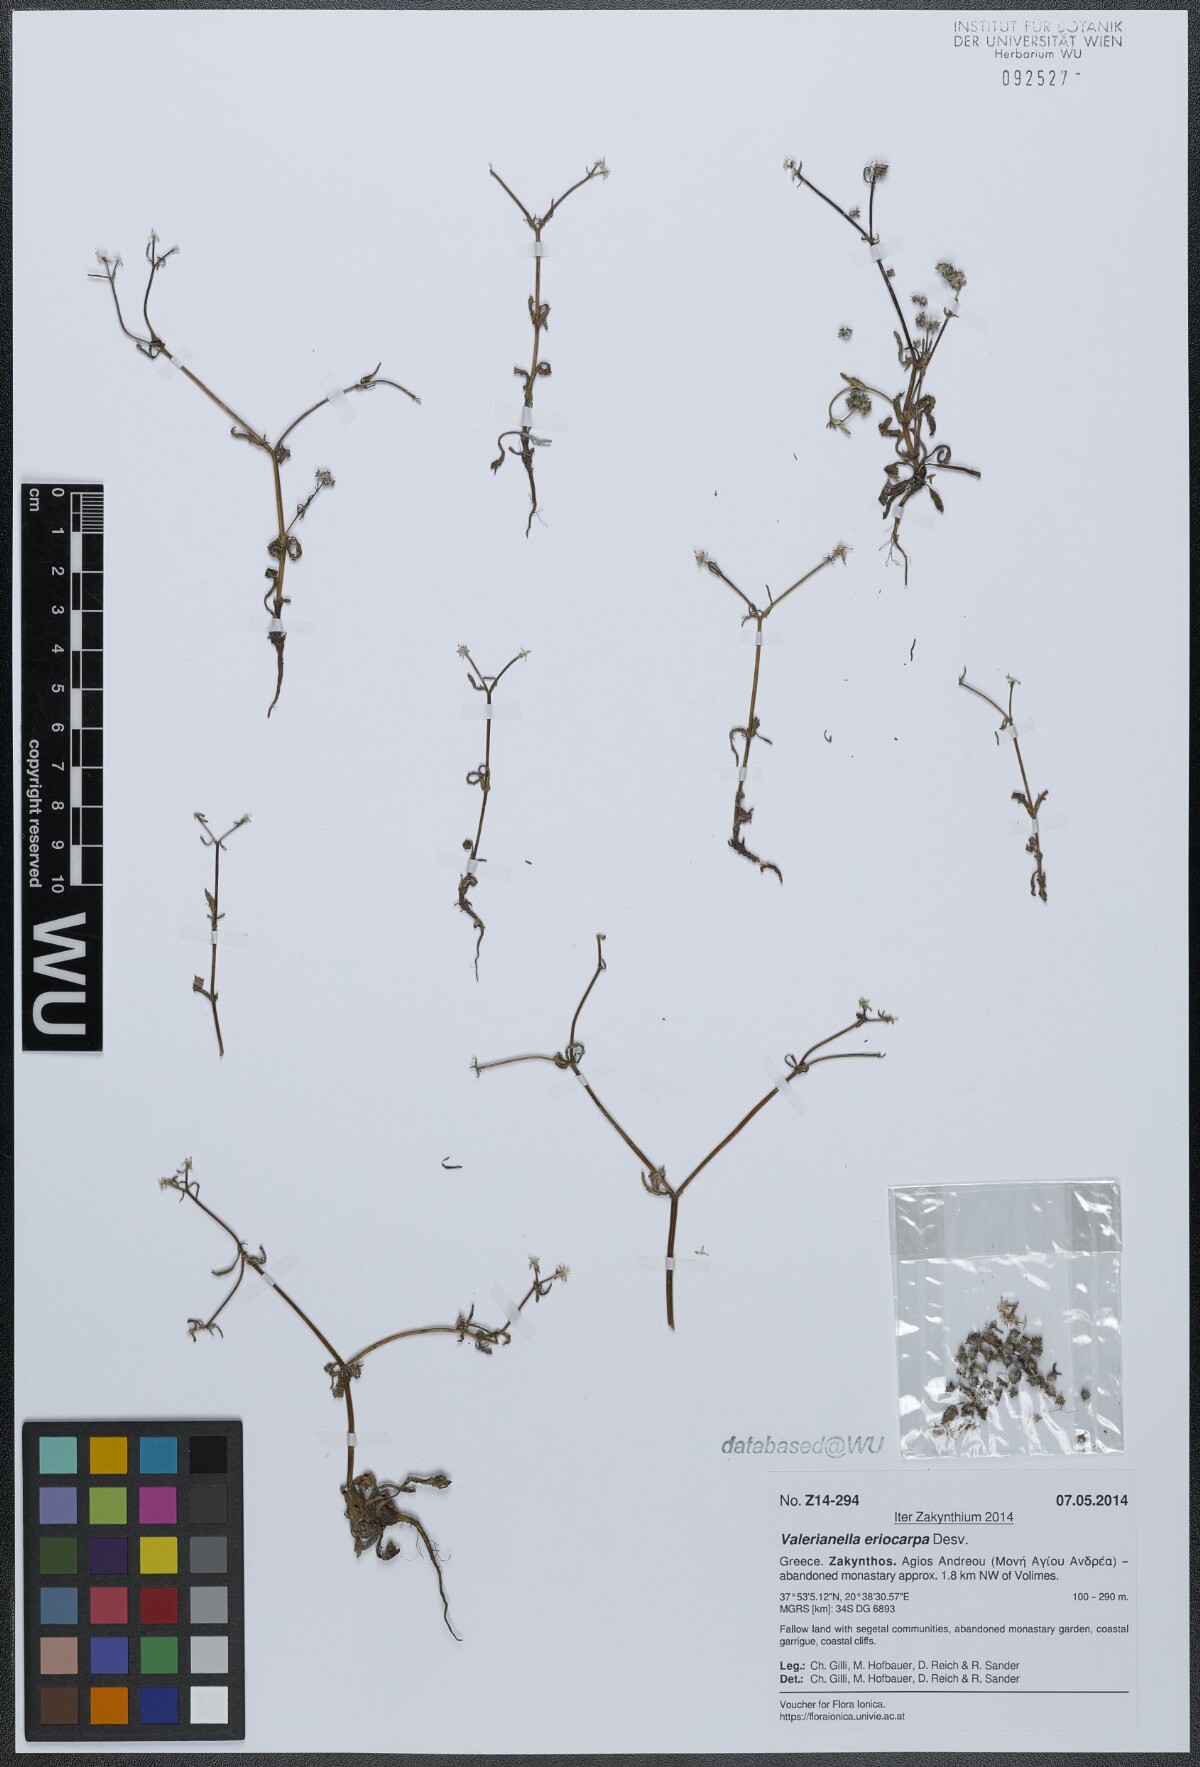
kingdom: Plantae
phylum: Tracheophyta
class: Magnoliopsida
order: Dipsacales
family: Caprifoliaceae
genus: Valerianella
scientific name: Valerianella eriocarpa
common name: Hairy-fruited cornsalad
